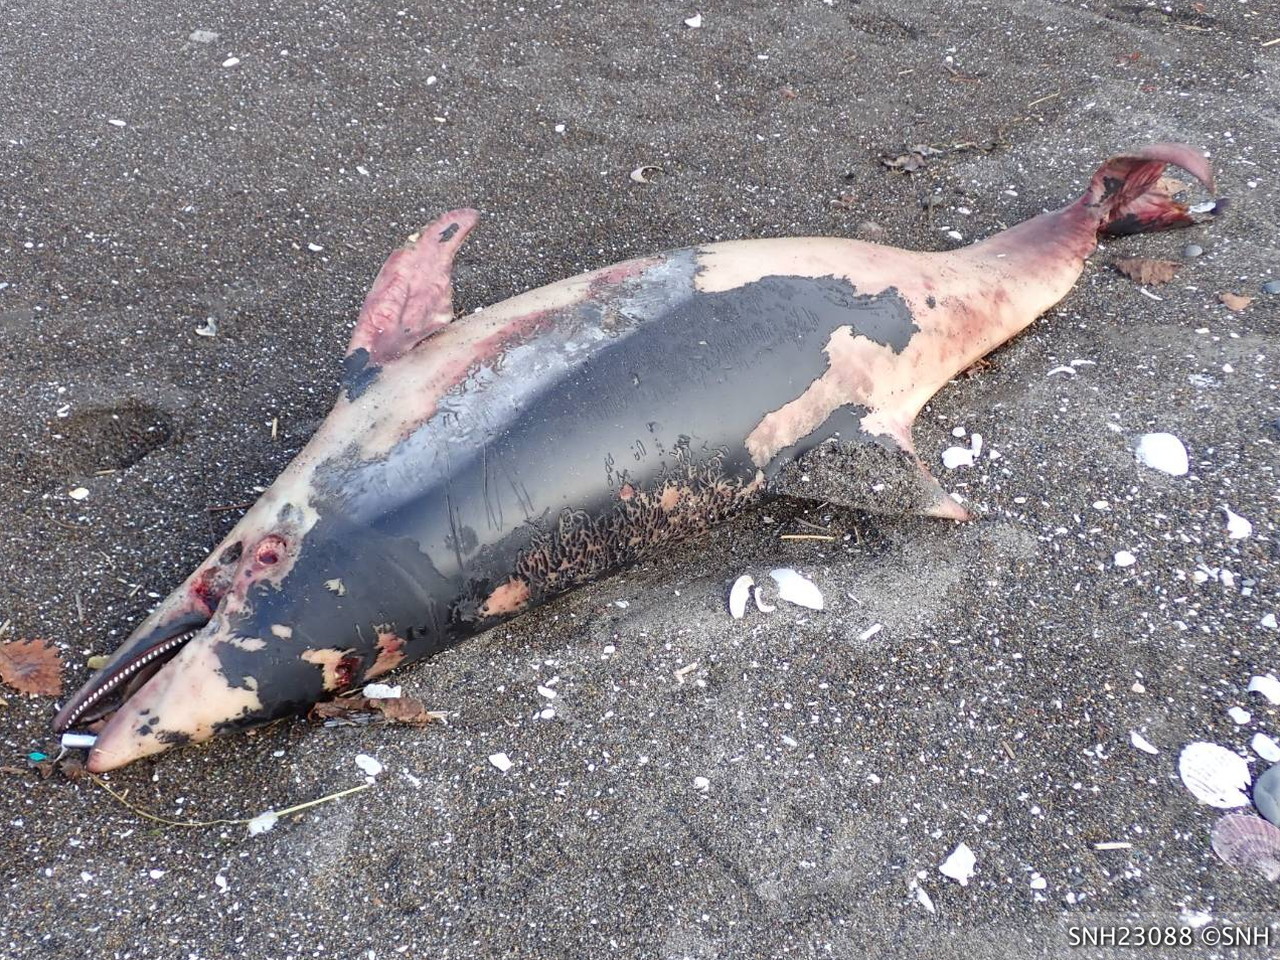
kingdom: Animalia
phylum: Chordata
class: Mammalia
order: Cetacea
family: Delphinidae
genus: Lagenorhynchus
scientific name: Lagenorhynchus obliquidens
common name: Pacific white-sided dolphin
